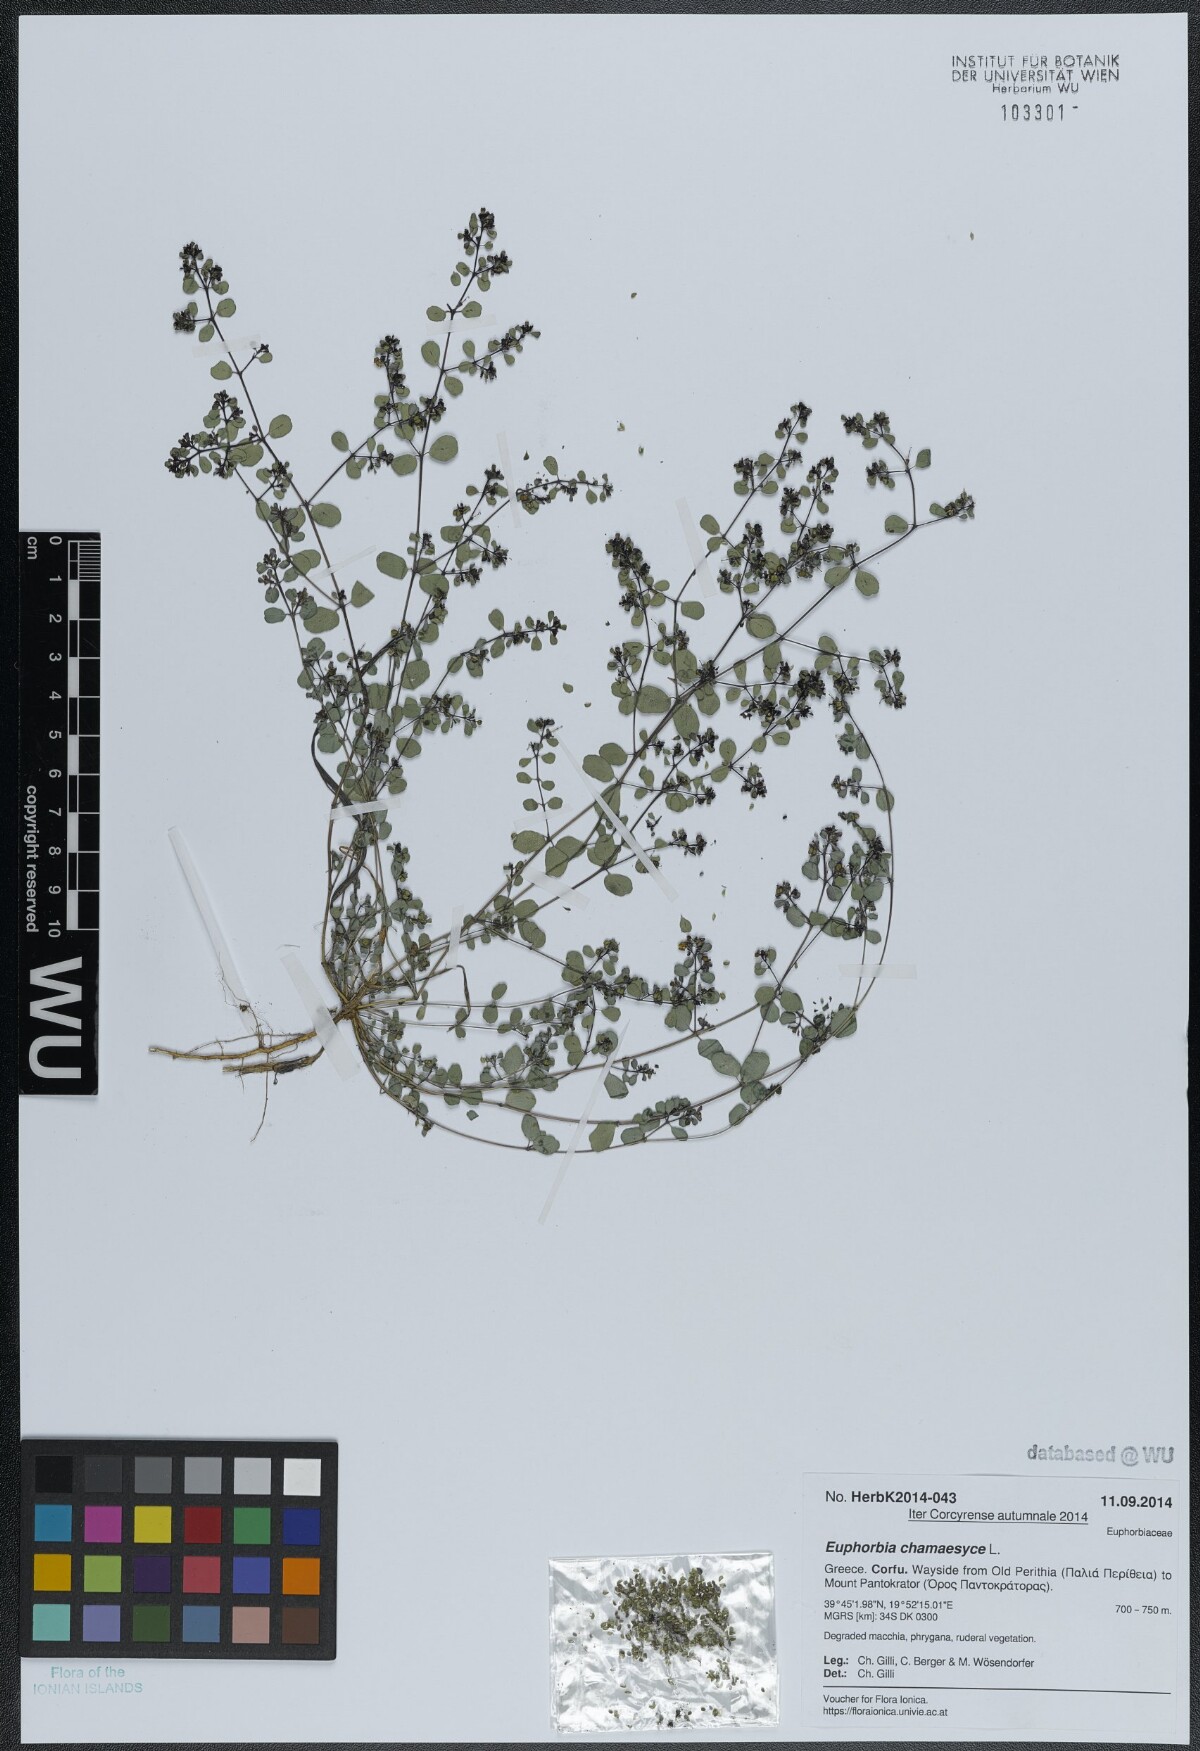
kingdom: Plantae
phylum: Tracheophyta
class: Magnoliopsida
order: Malpighiales
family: Euphorbiaceae
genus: Euphorbia
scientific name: Euphorbia chamaesyce
